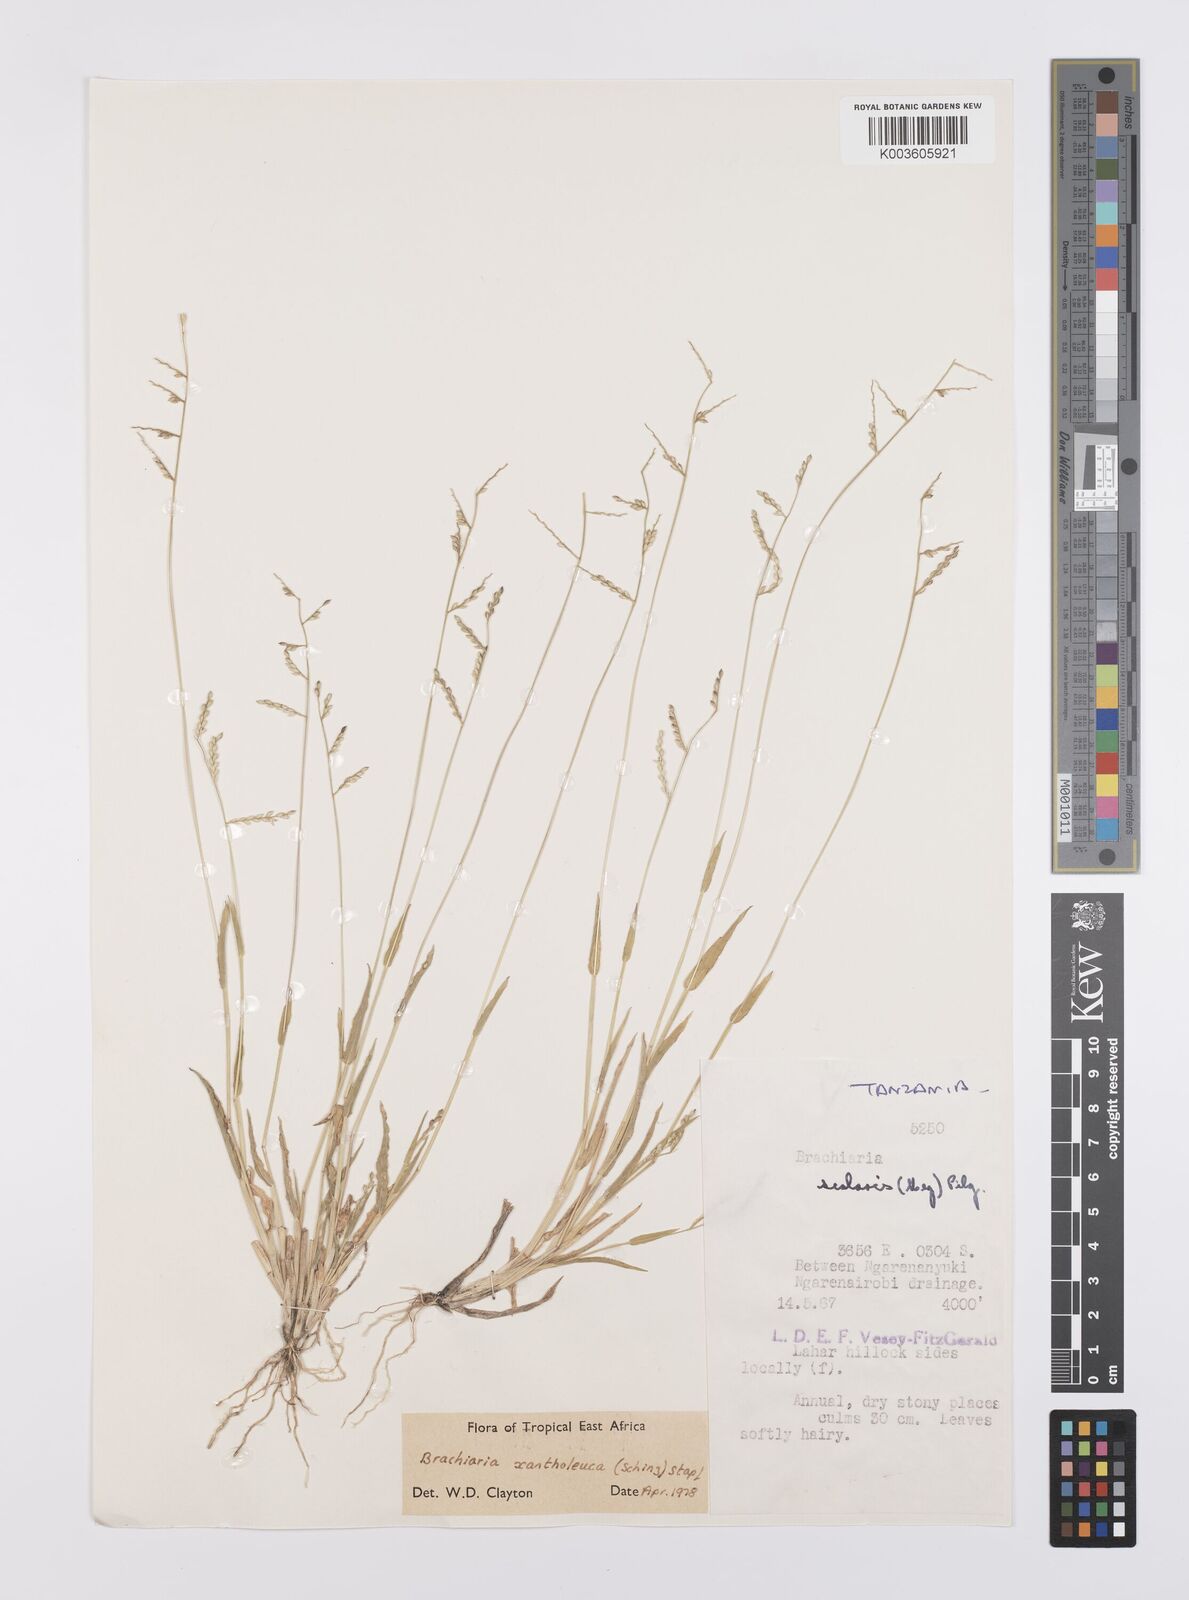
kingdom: Plantae
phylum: Tracheophyta
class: Liliopsida
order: Poales
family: Poaceae
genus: Urochloa
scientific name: Urochloa xantholeuca
